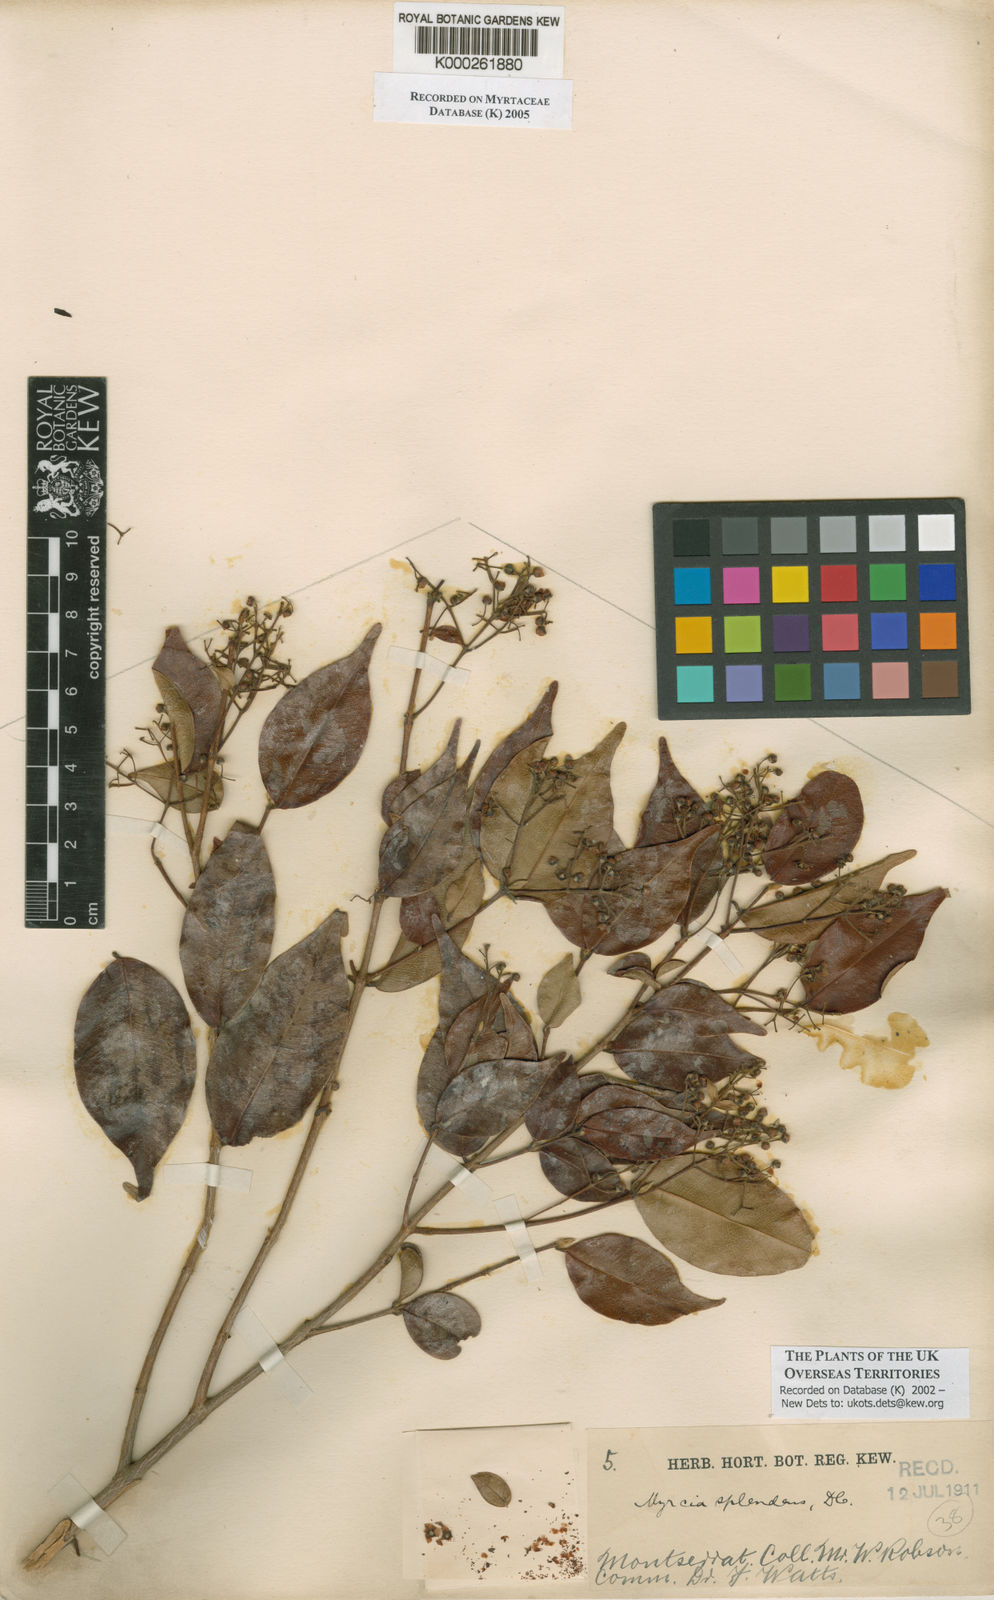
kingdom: Plantae
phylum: Tracheophyta
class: Magnoliopsida
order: Myrtales
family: Myrtaceae
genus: Myrcia
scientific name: Myrcia splendens
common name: Surinam cherry
